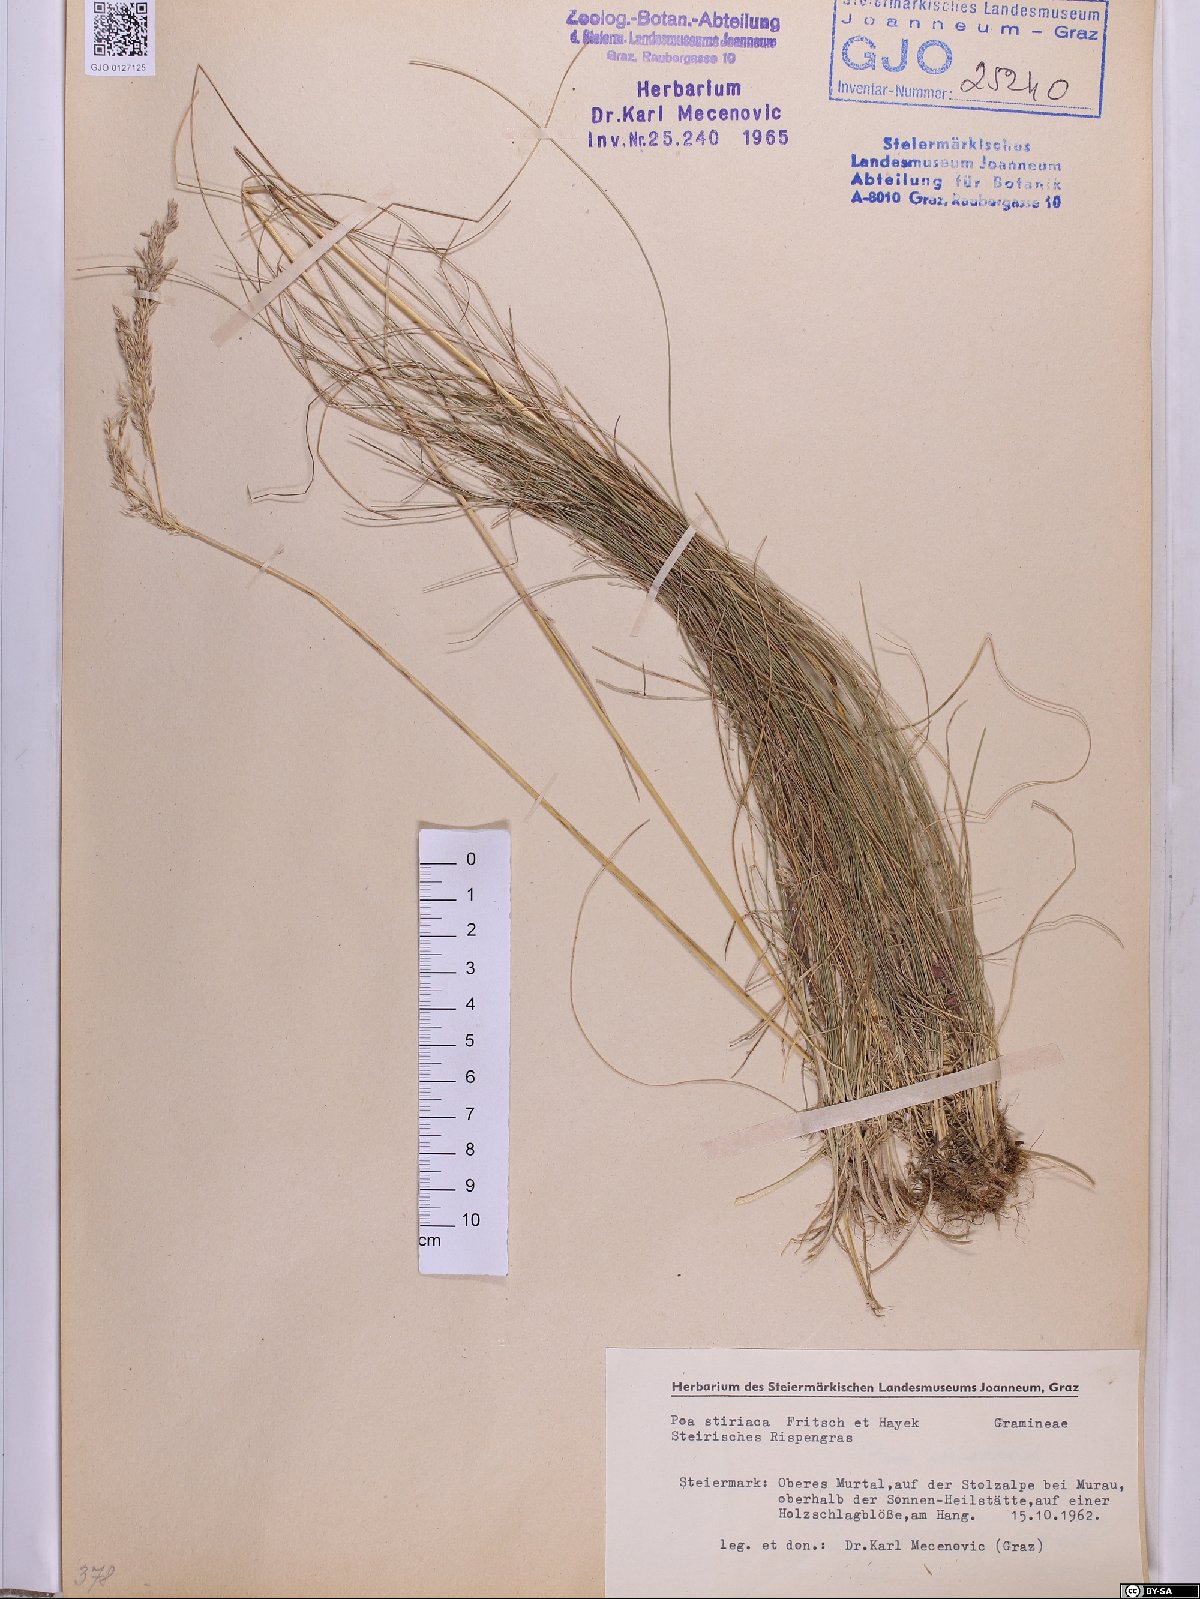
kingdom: Plantae
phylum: Tracheophyta
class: Liliopsida
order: Poales
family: Poaceae
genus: Poa
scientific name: Poa stiriaca
